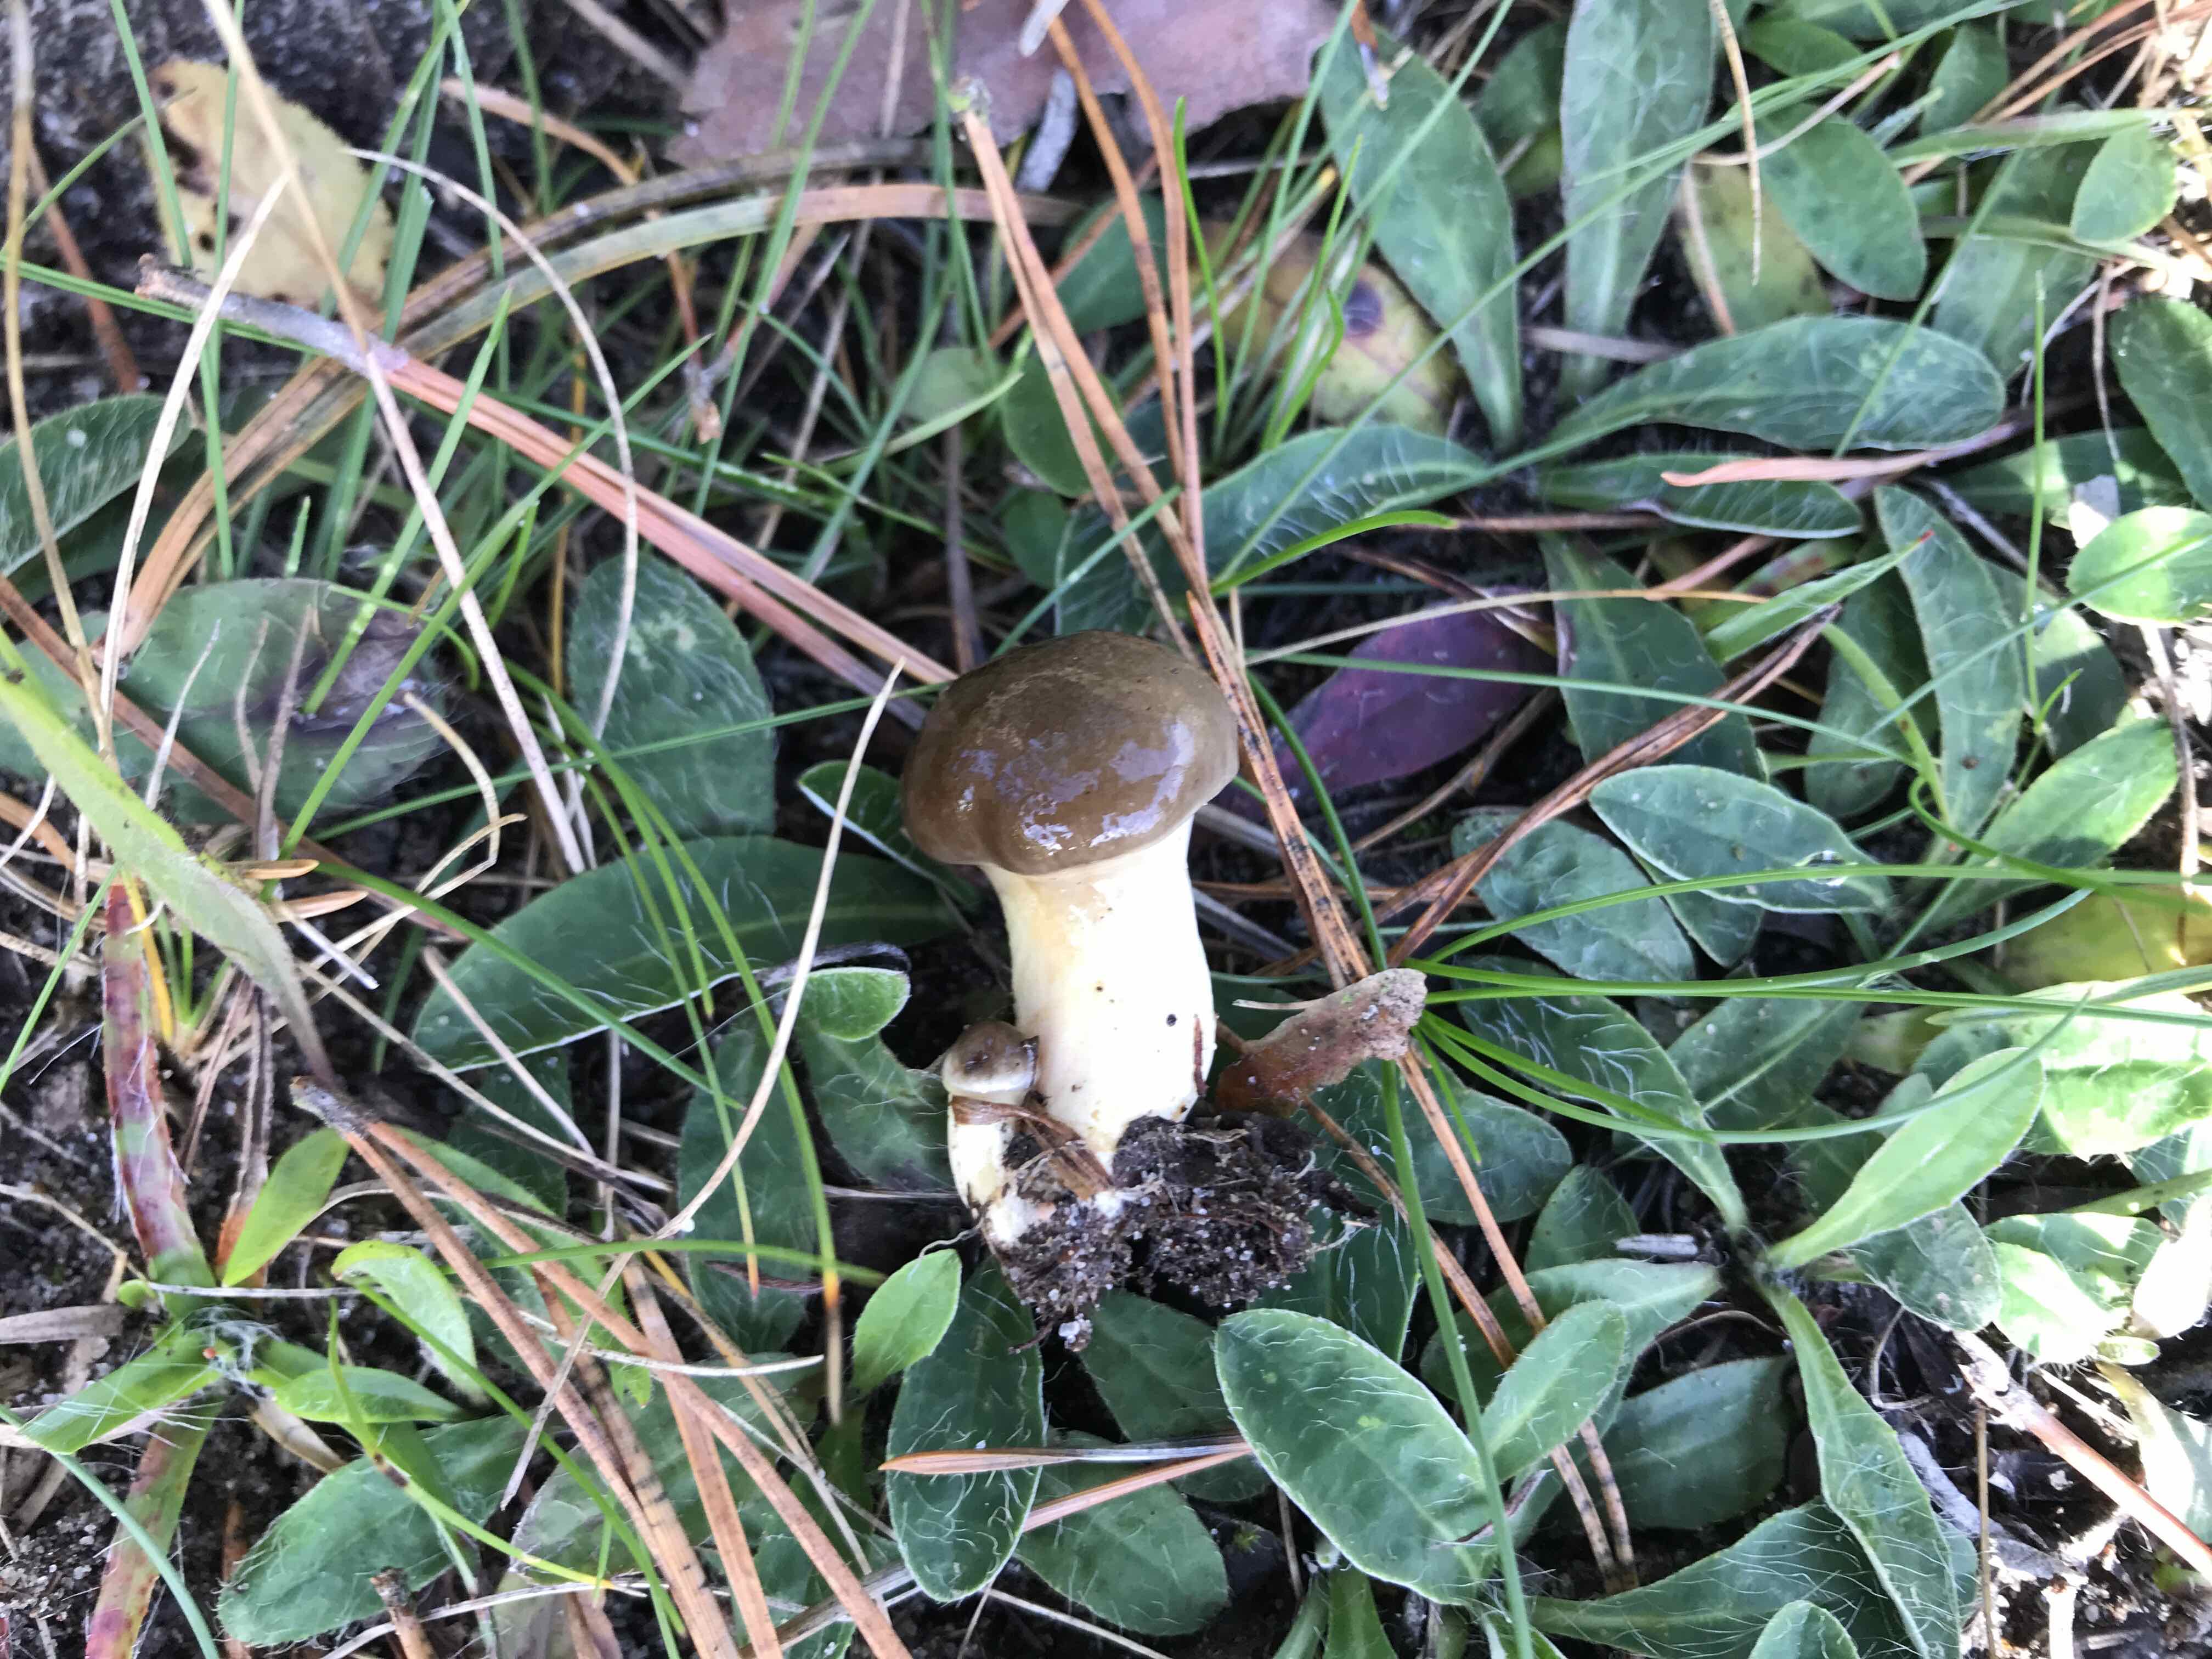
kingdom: Fungi
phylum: Basidiomycota
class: Agaricomycetes
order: Agaricales
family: Hygrophoraceae
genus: Hygrophorus
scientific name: Hygrophorus hypothejus
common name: frost-sneglehat
